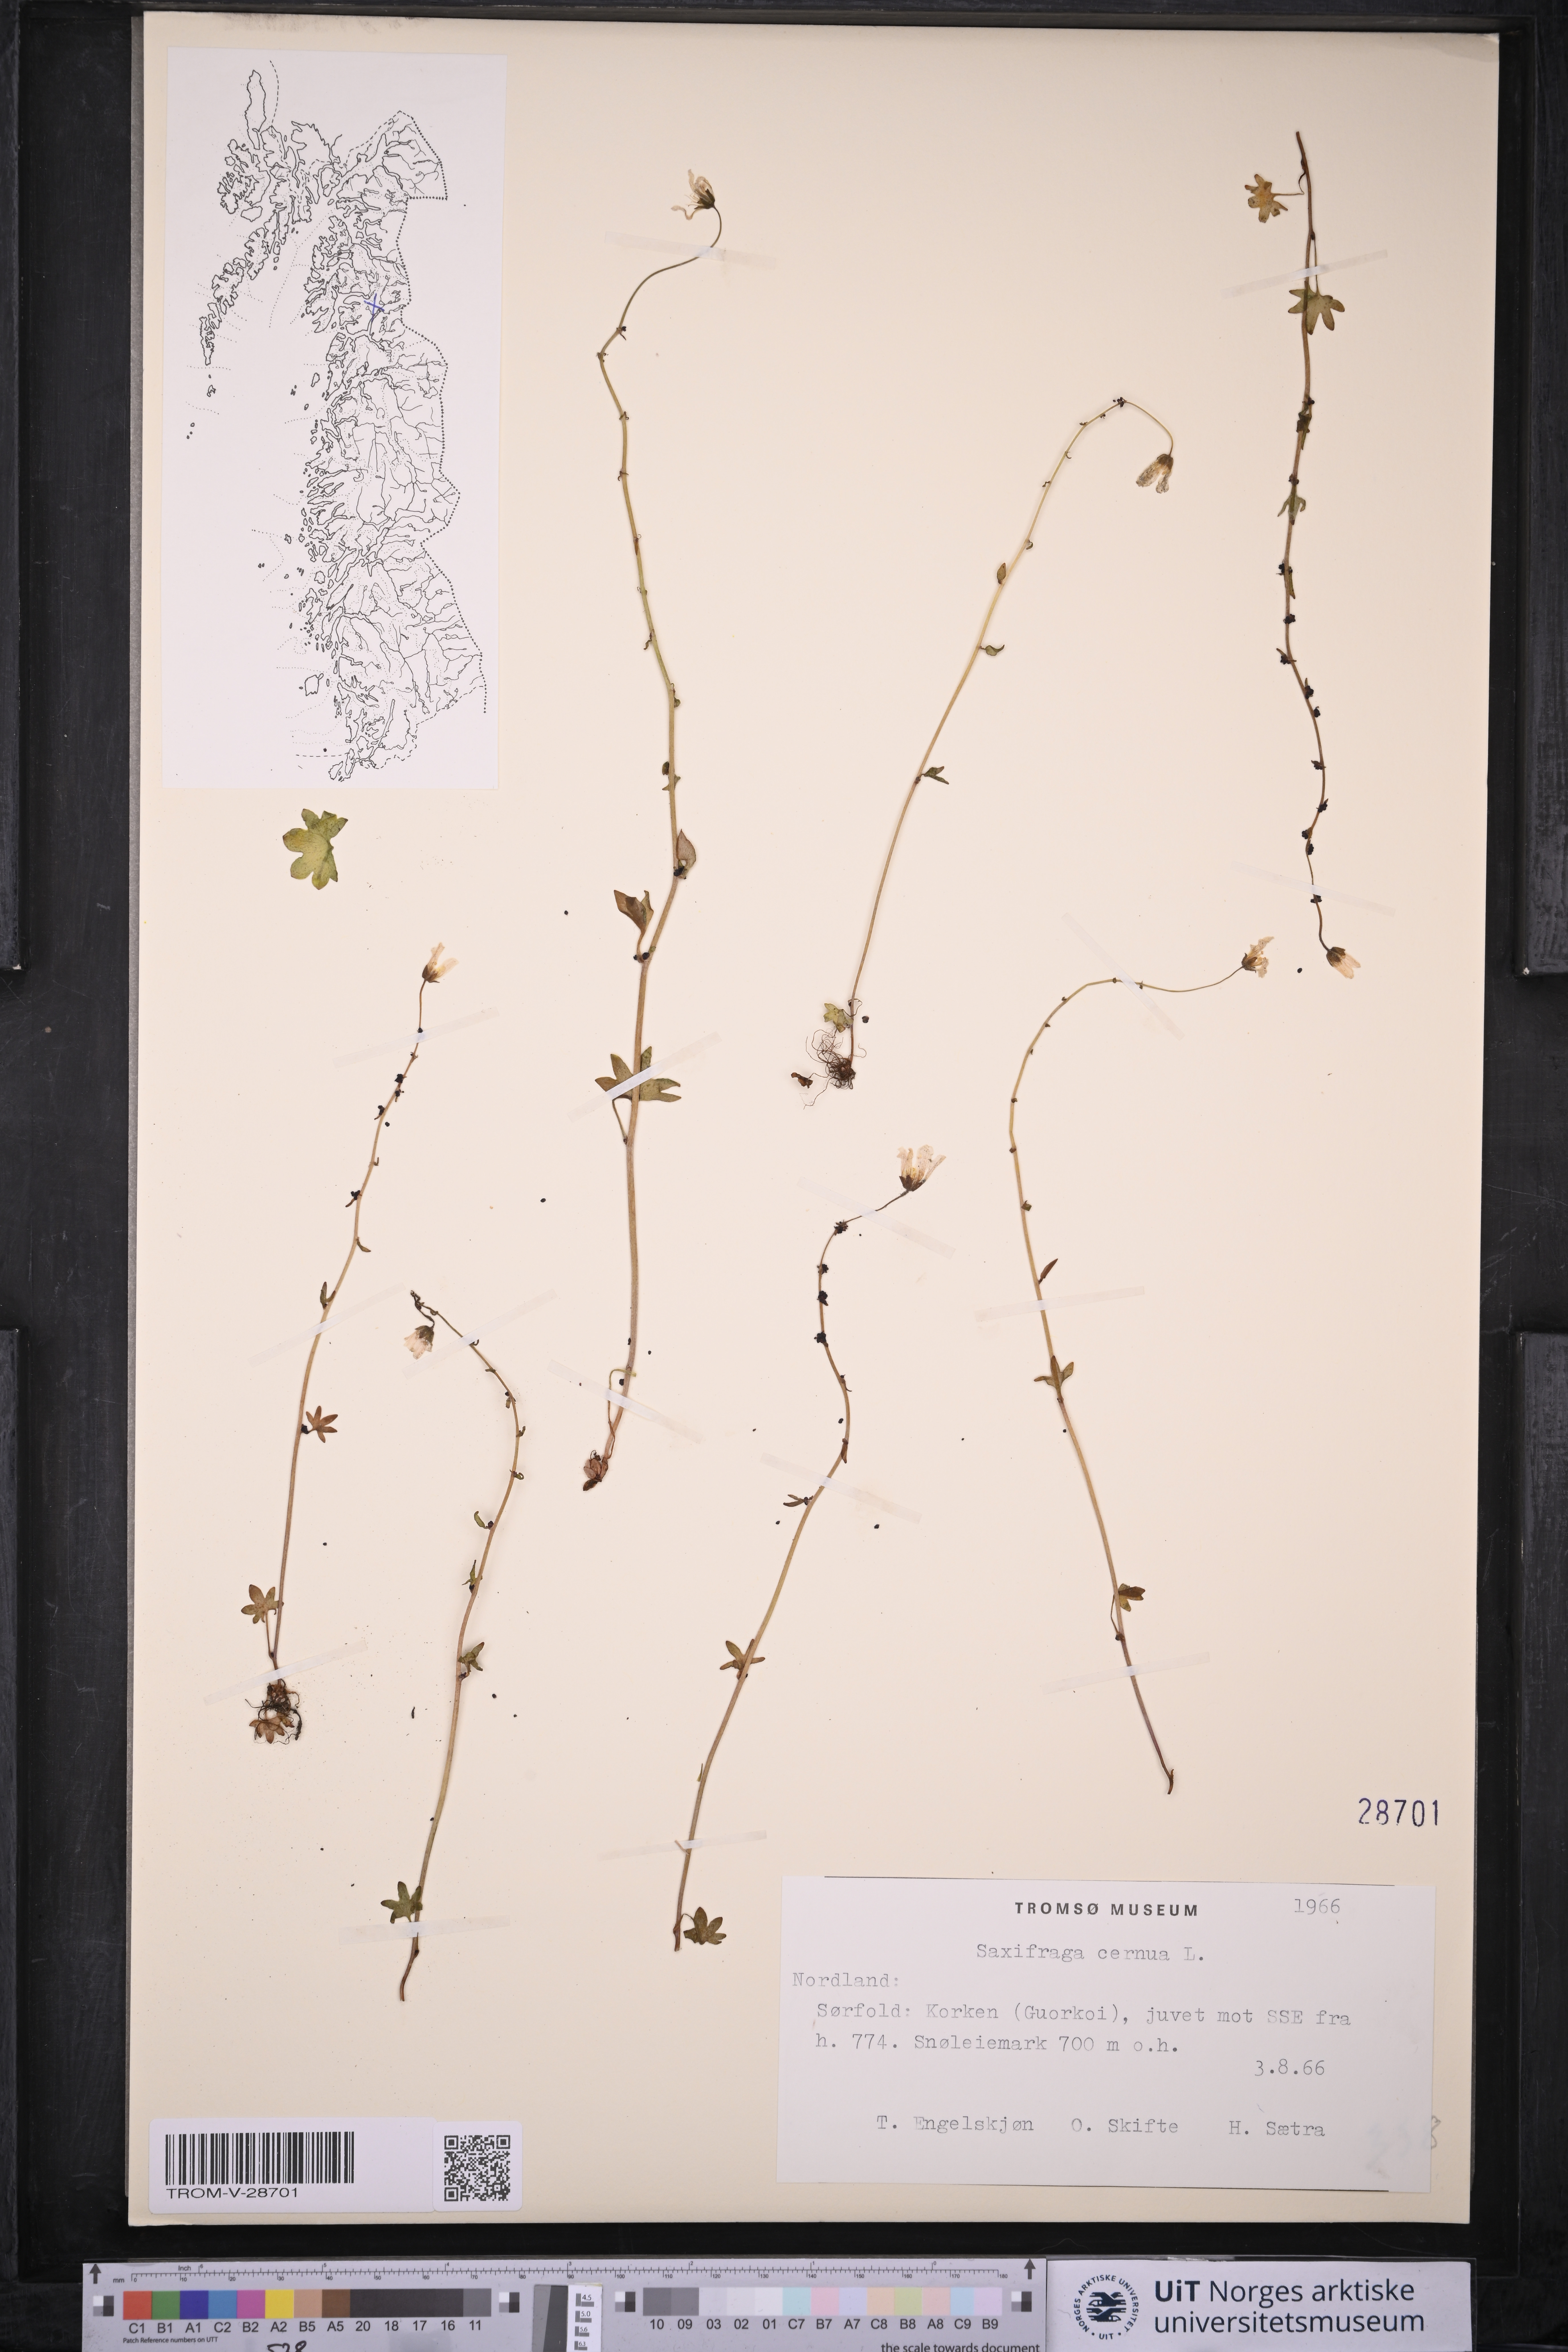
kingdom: Plantae
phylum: Tracheophyta
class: Magnoliopsida
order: Saxifragales
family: Saxifragaceae
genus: Saxifraga
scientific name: Saxifraga cernua
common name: Drooping saxifrage
